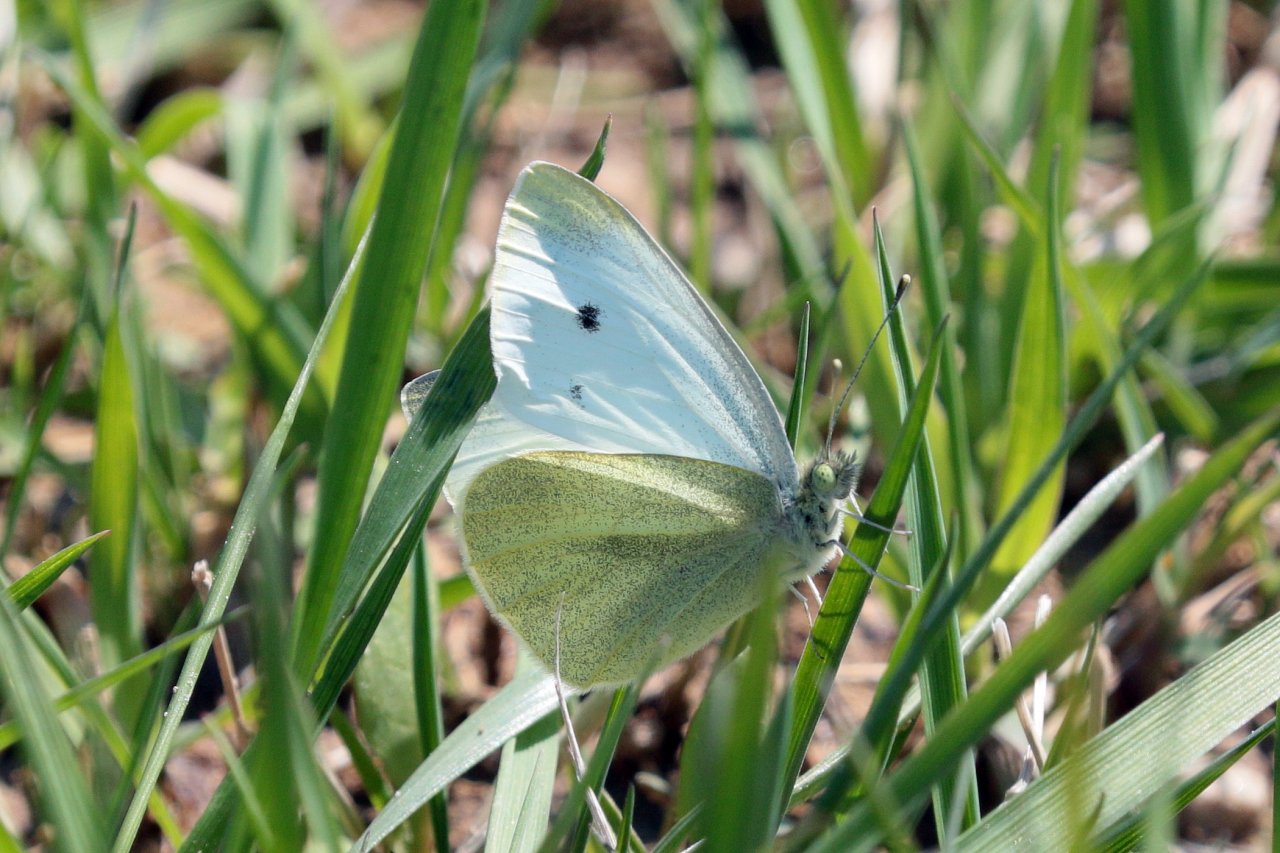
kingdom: Animalia
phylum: Arthropoda
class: Insecta
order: Lepidoptera
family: Pieridae
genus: Pieris
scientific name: Pieris rapae
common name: Cabbage White
